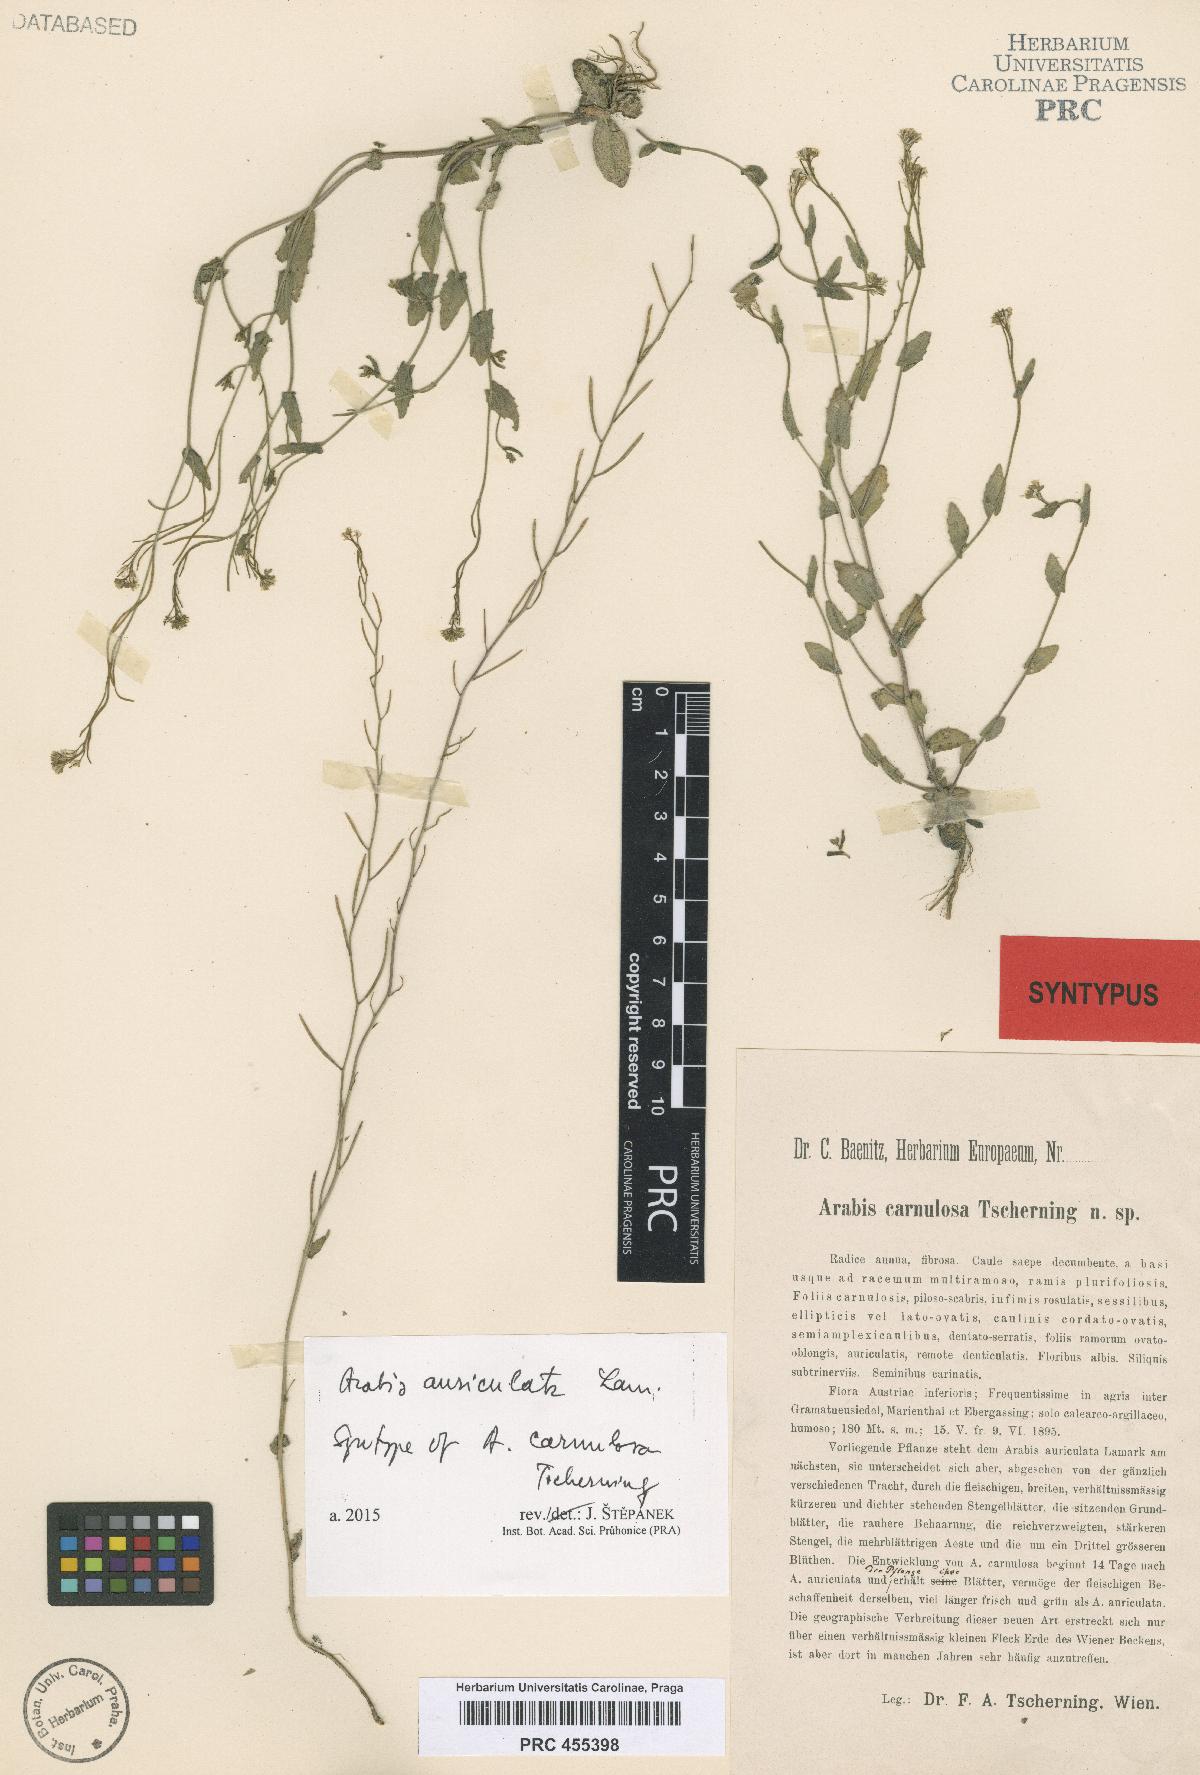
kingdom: Plantae
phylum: Tracheophyta
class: Magnoliopsida
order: Brassicales
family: Brassicaceae
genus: Arabis
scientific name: Arabis auriculata
